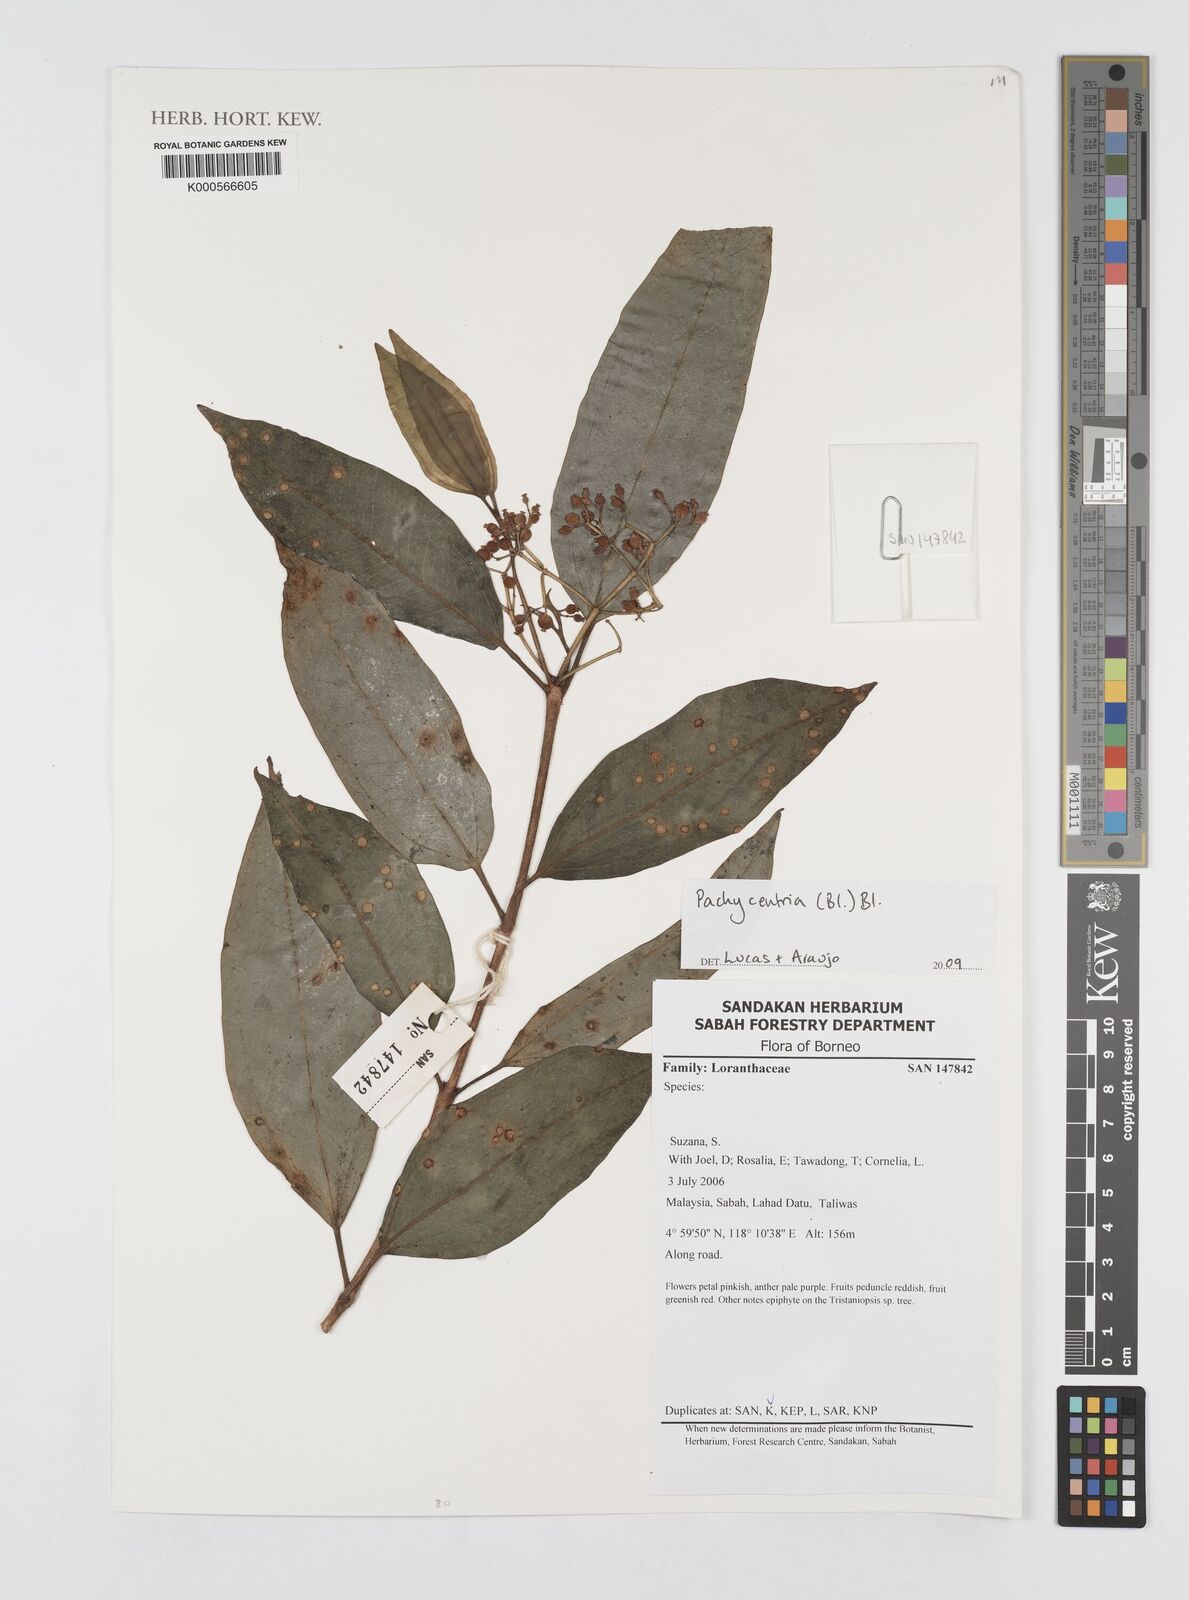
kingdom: Plantae
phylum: Tracheophyta
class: Magnoliopsida
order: Myrtales
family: Melastomataceae
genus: Pachycentria
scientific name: Pachycentria
